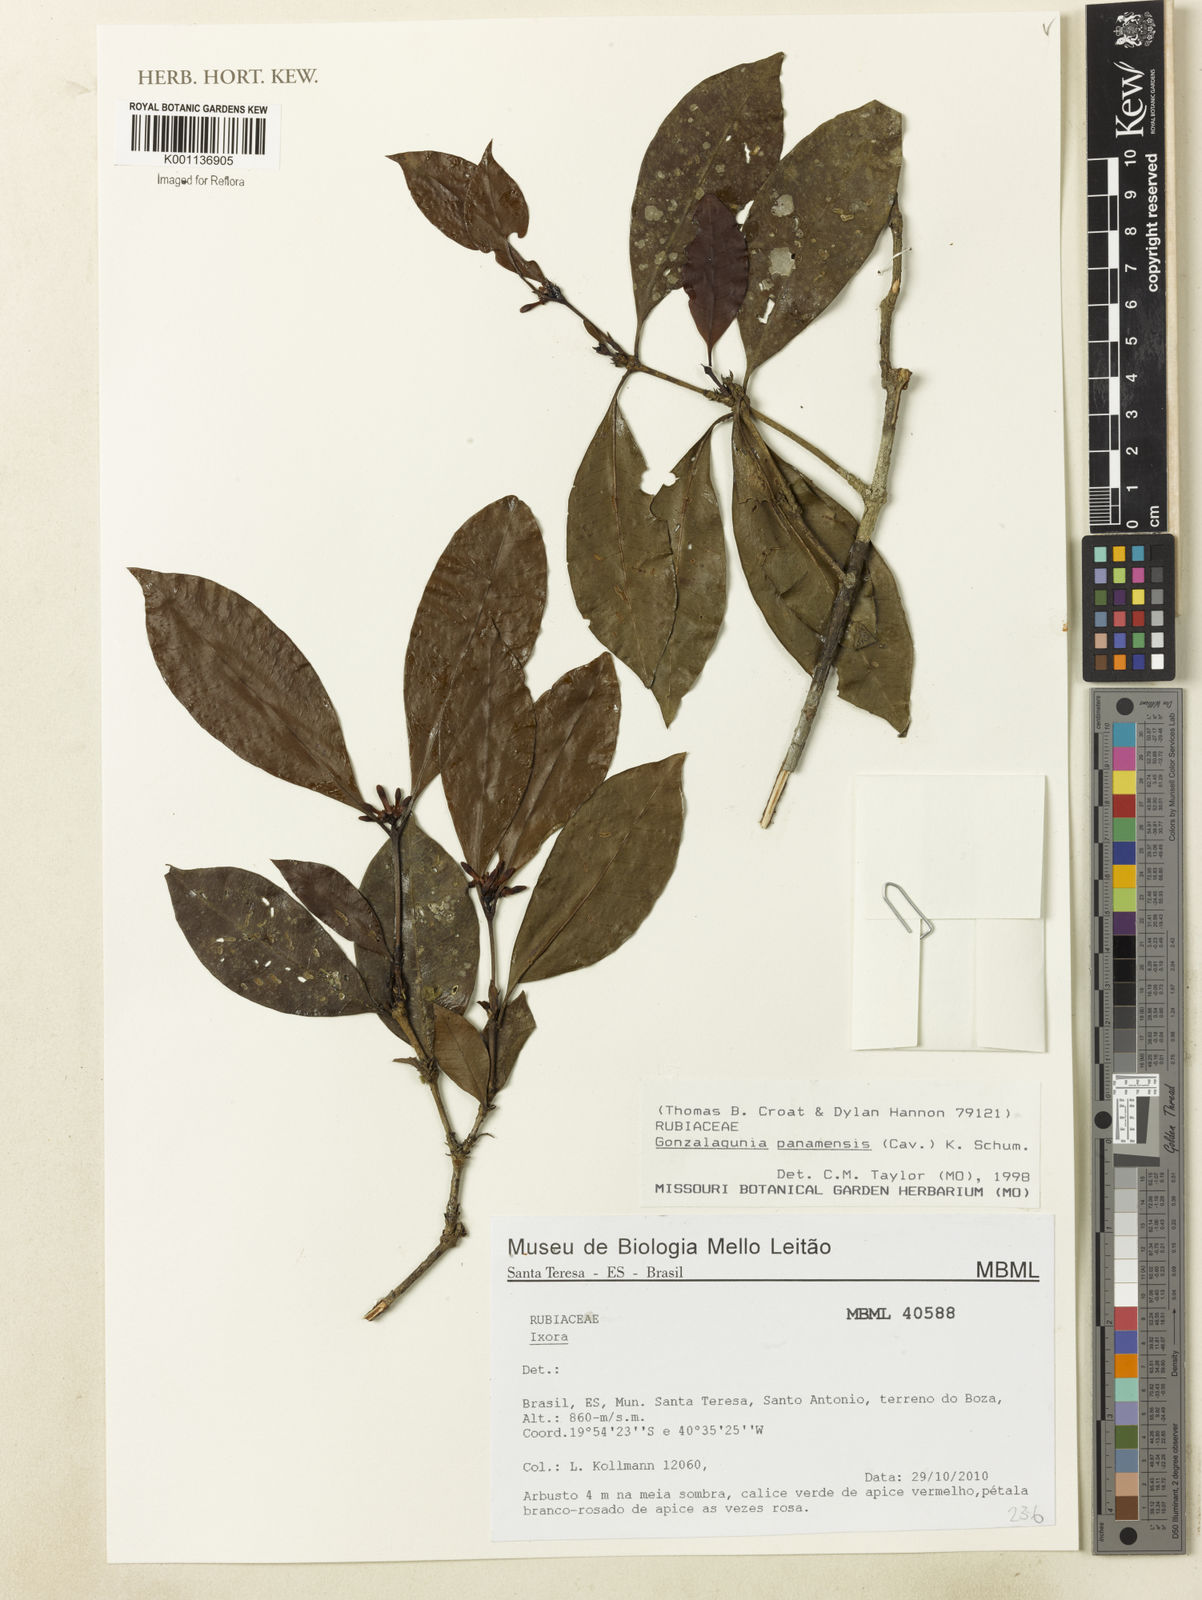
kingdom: Plantae
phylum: Tracheophyta
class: Magnoliopsida
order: Gentianales
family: Rubiaceae
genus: Sabicea
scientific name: Sabicea panamensis
